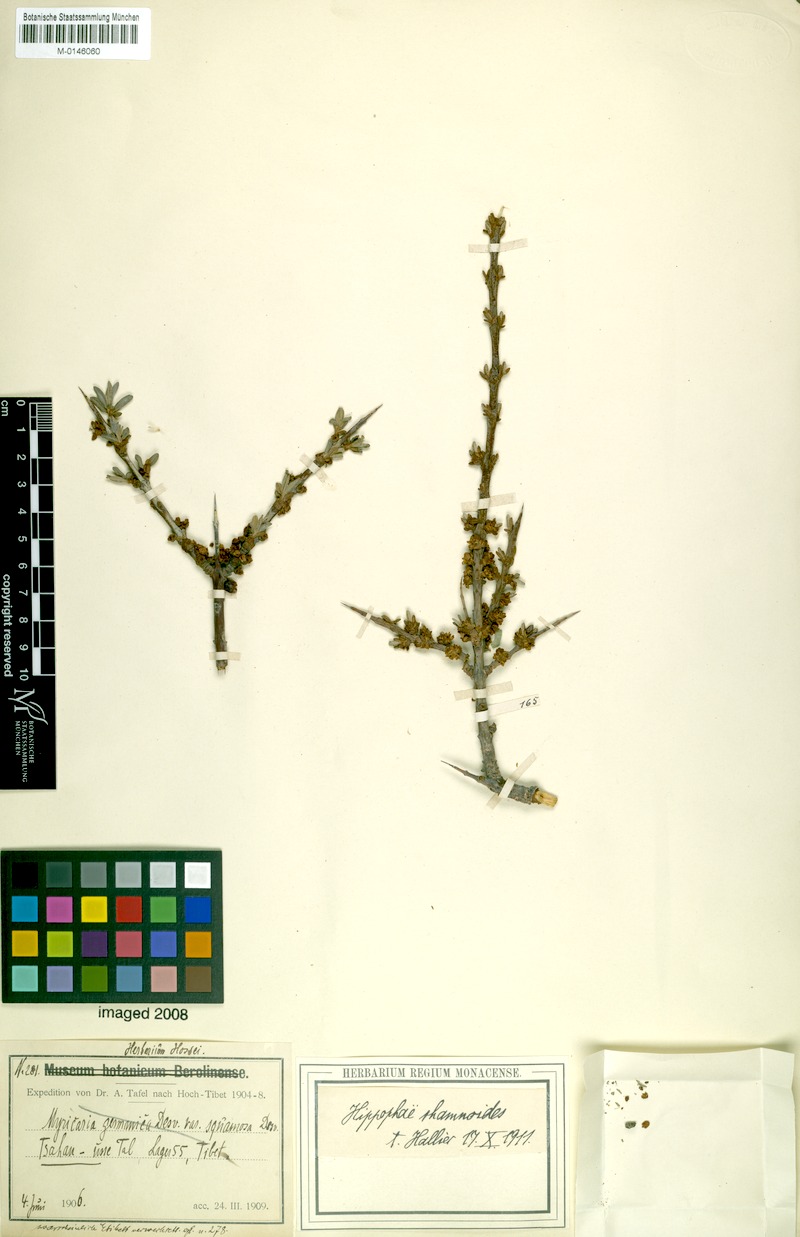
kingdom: Plantae
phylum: Tracheophyta
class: Magnoliopsida
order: Rosales
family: Elaeagnaceae
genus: Hippophae
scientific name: Hippophae rhamnoides
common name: Sea-buckthorn
